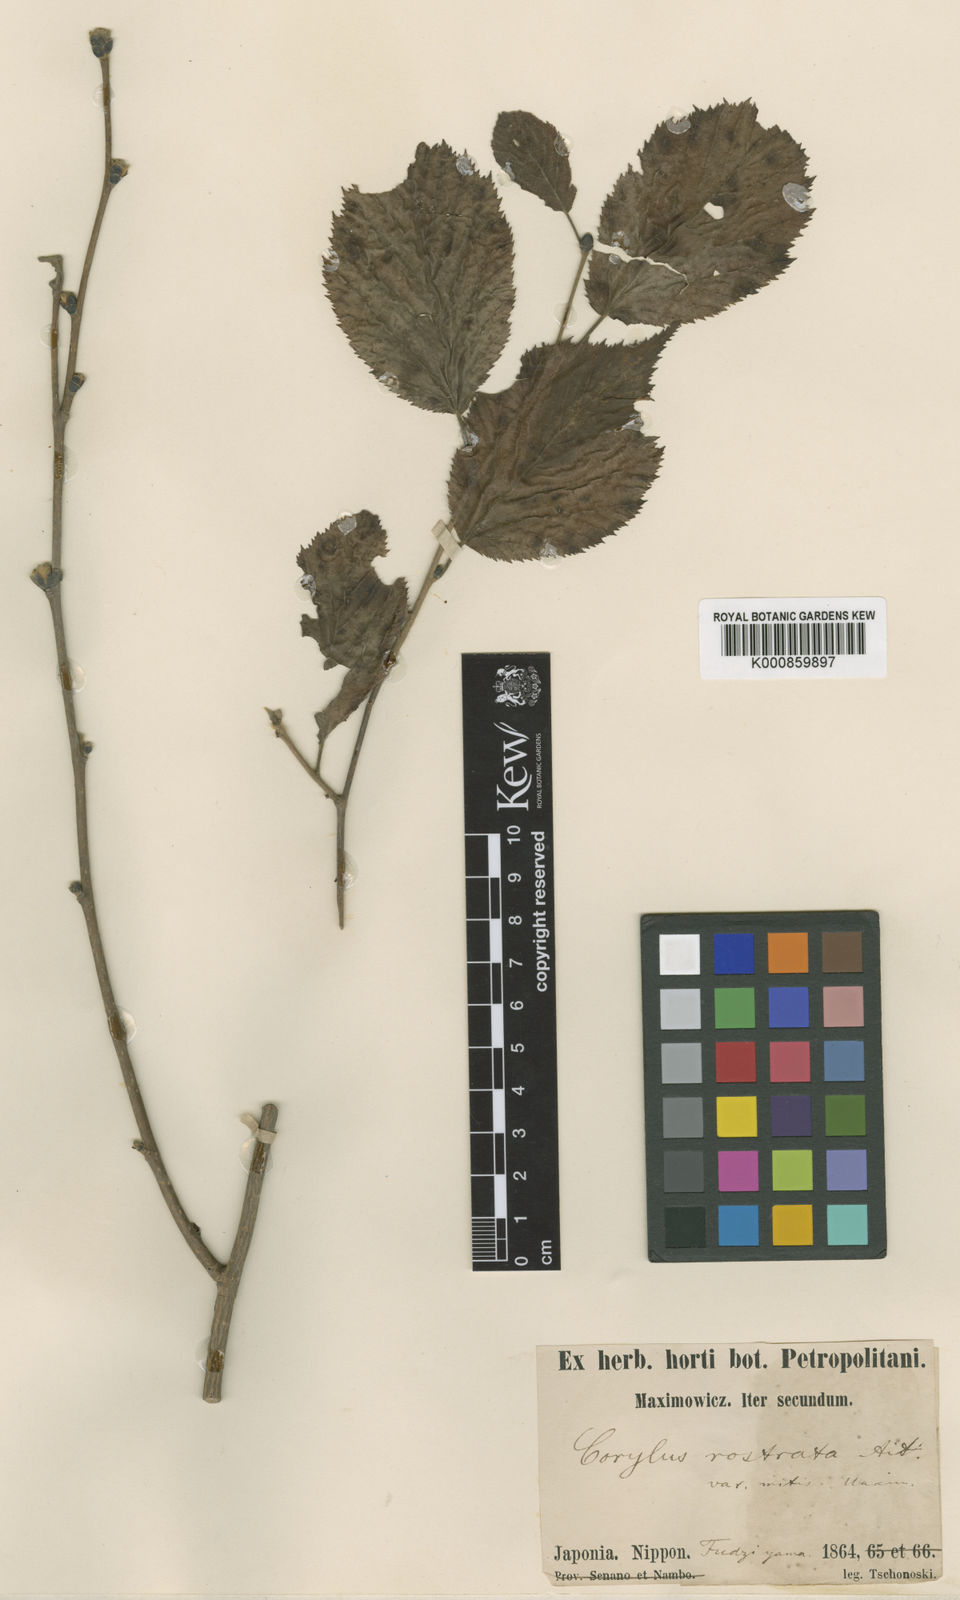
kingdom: Plantae
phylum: Tracheophyta
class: Magnoliopsida
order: Fagales
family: Betulaceae
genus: Corylus
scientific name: Corylus sieboldiana
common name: Japanese hazel
